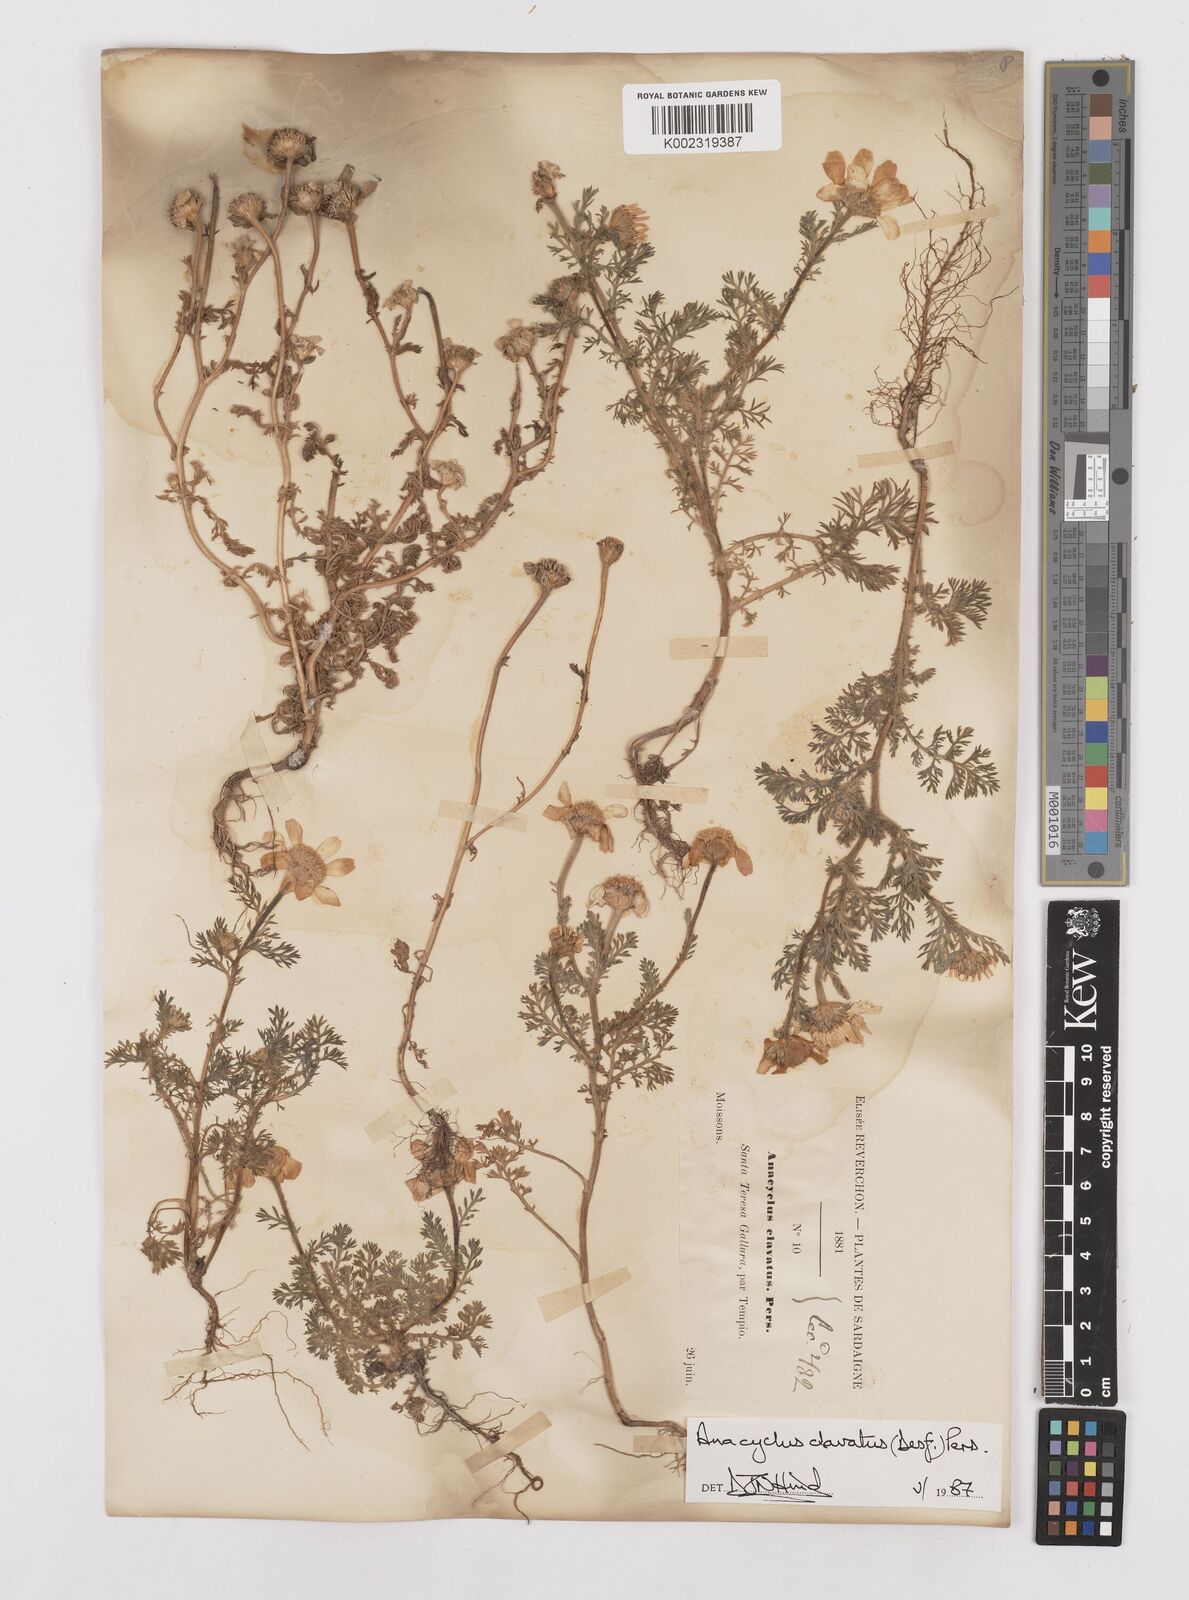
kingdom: Plantae
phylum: Tracheophyta
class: Magnoliopsida
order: Asterales
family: Asteraceae
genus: Anacyclus
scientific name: Anacyclus clavatus
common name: Whitebuttons
